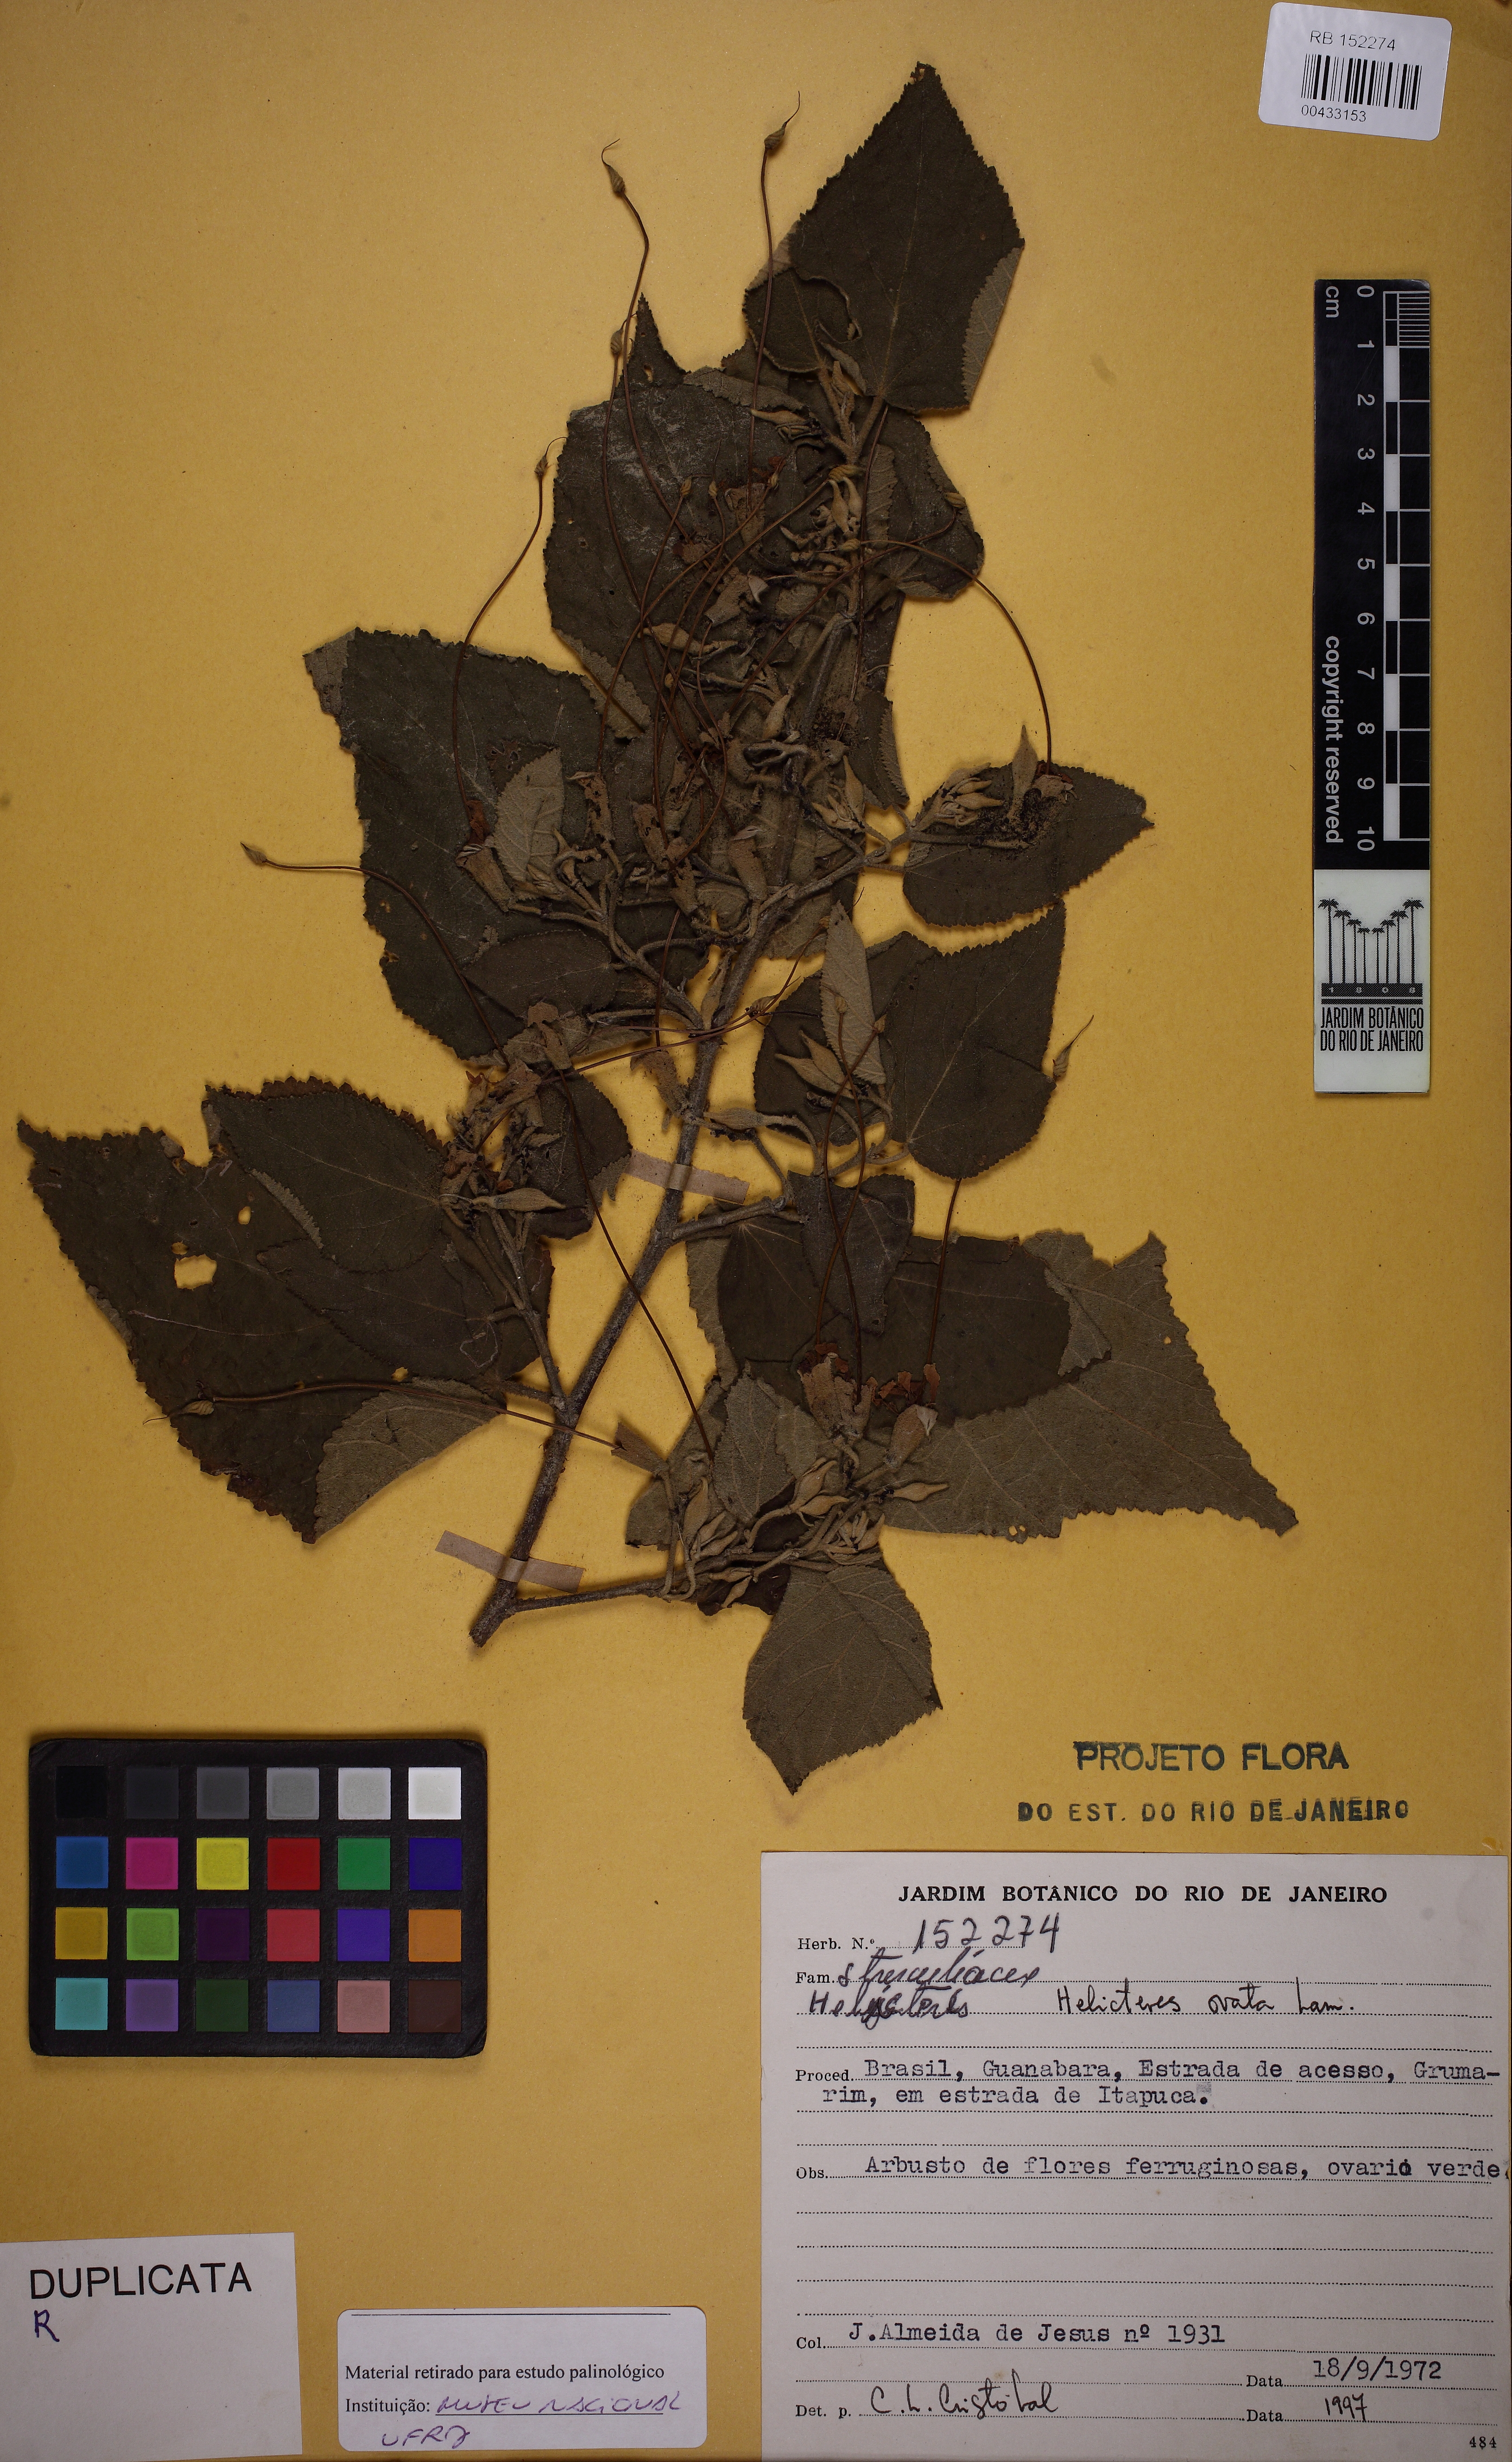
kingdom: Plantae
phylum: Tracheophyta
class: Magnoliopsida
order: Malvales
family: Malvaceae
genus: Helicteres
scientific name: Helicteres ovata
